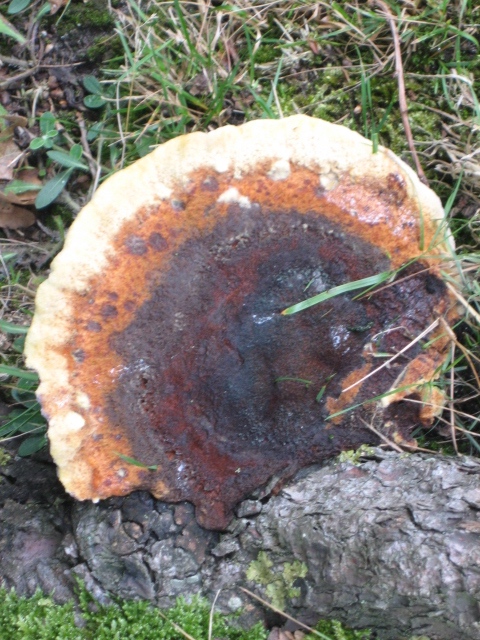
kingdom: Fungi
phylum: Basidiomycota
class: Agaricomycetes
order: Polyporales
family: Laetiporaceae
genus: Phaeolus
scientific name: Phaeolus schweinitzii
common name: brunporesvamp
